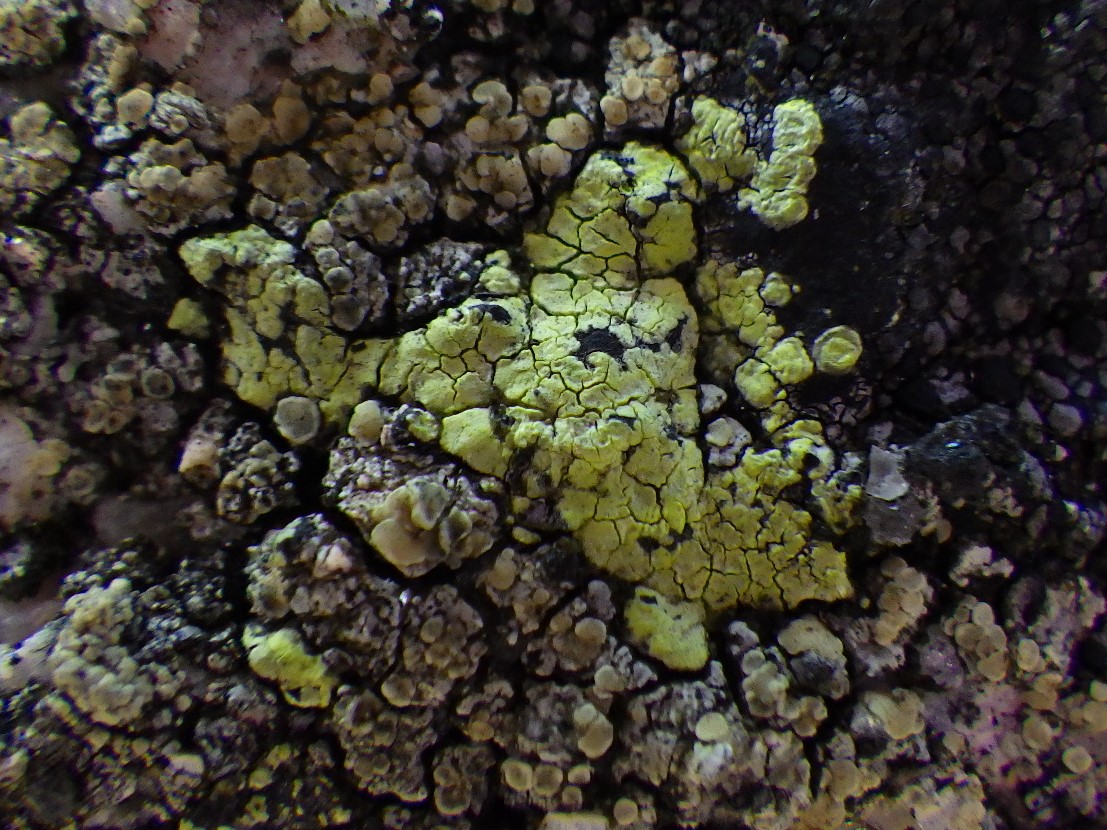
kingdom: Fungi
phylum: Ascomycota
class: Lecanoromycetes
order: Rhizocarpales
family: Rhizocarpaceae
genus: Rhizocarpon
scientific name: Rhizocarpon geographicum
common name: gulgrøn landkortlav
